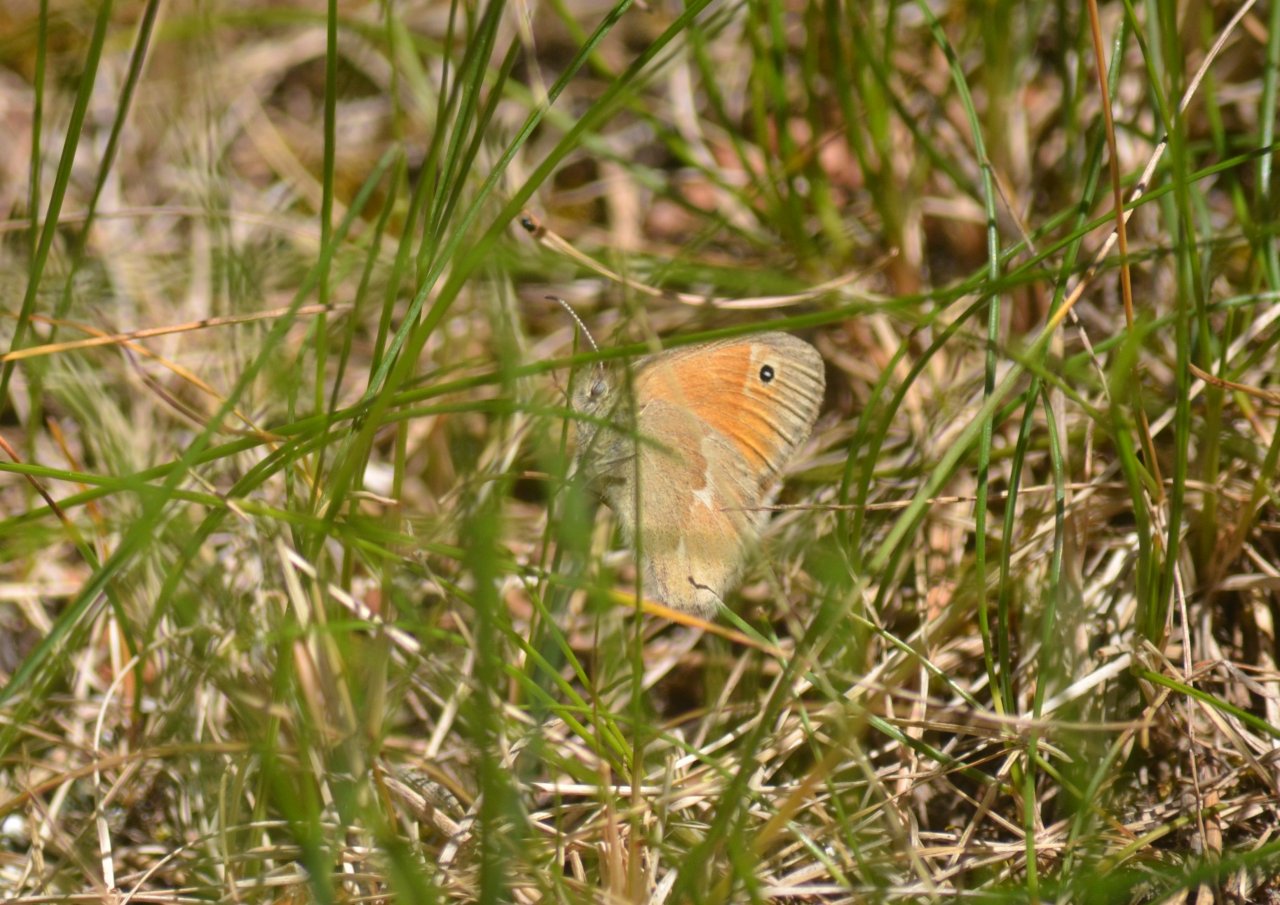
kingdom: Animalia
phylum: Arthropoda
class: Insecta
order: Lepidoptera
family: Nymphalidae
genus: Coenonympha
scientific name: Coenonympha tullia
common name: Large Heath
